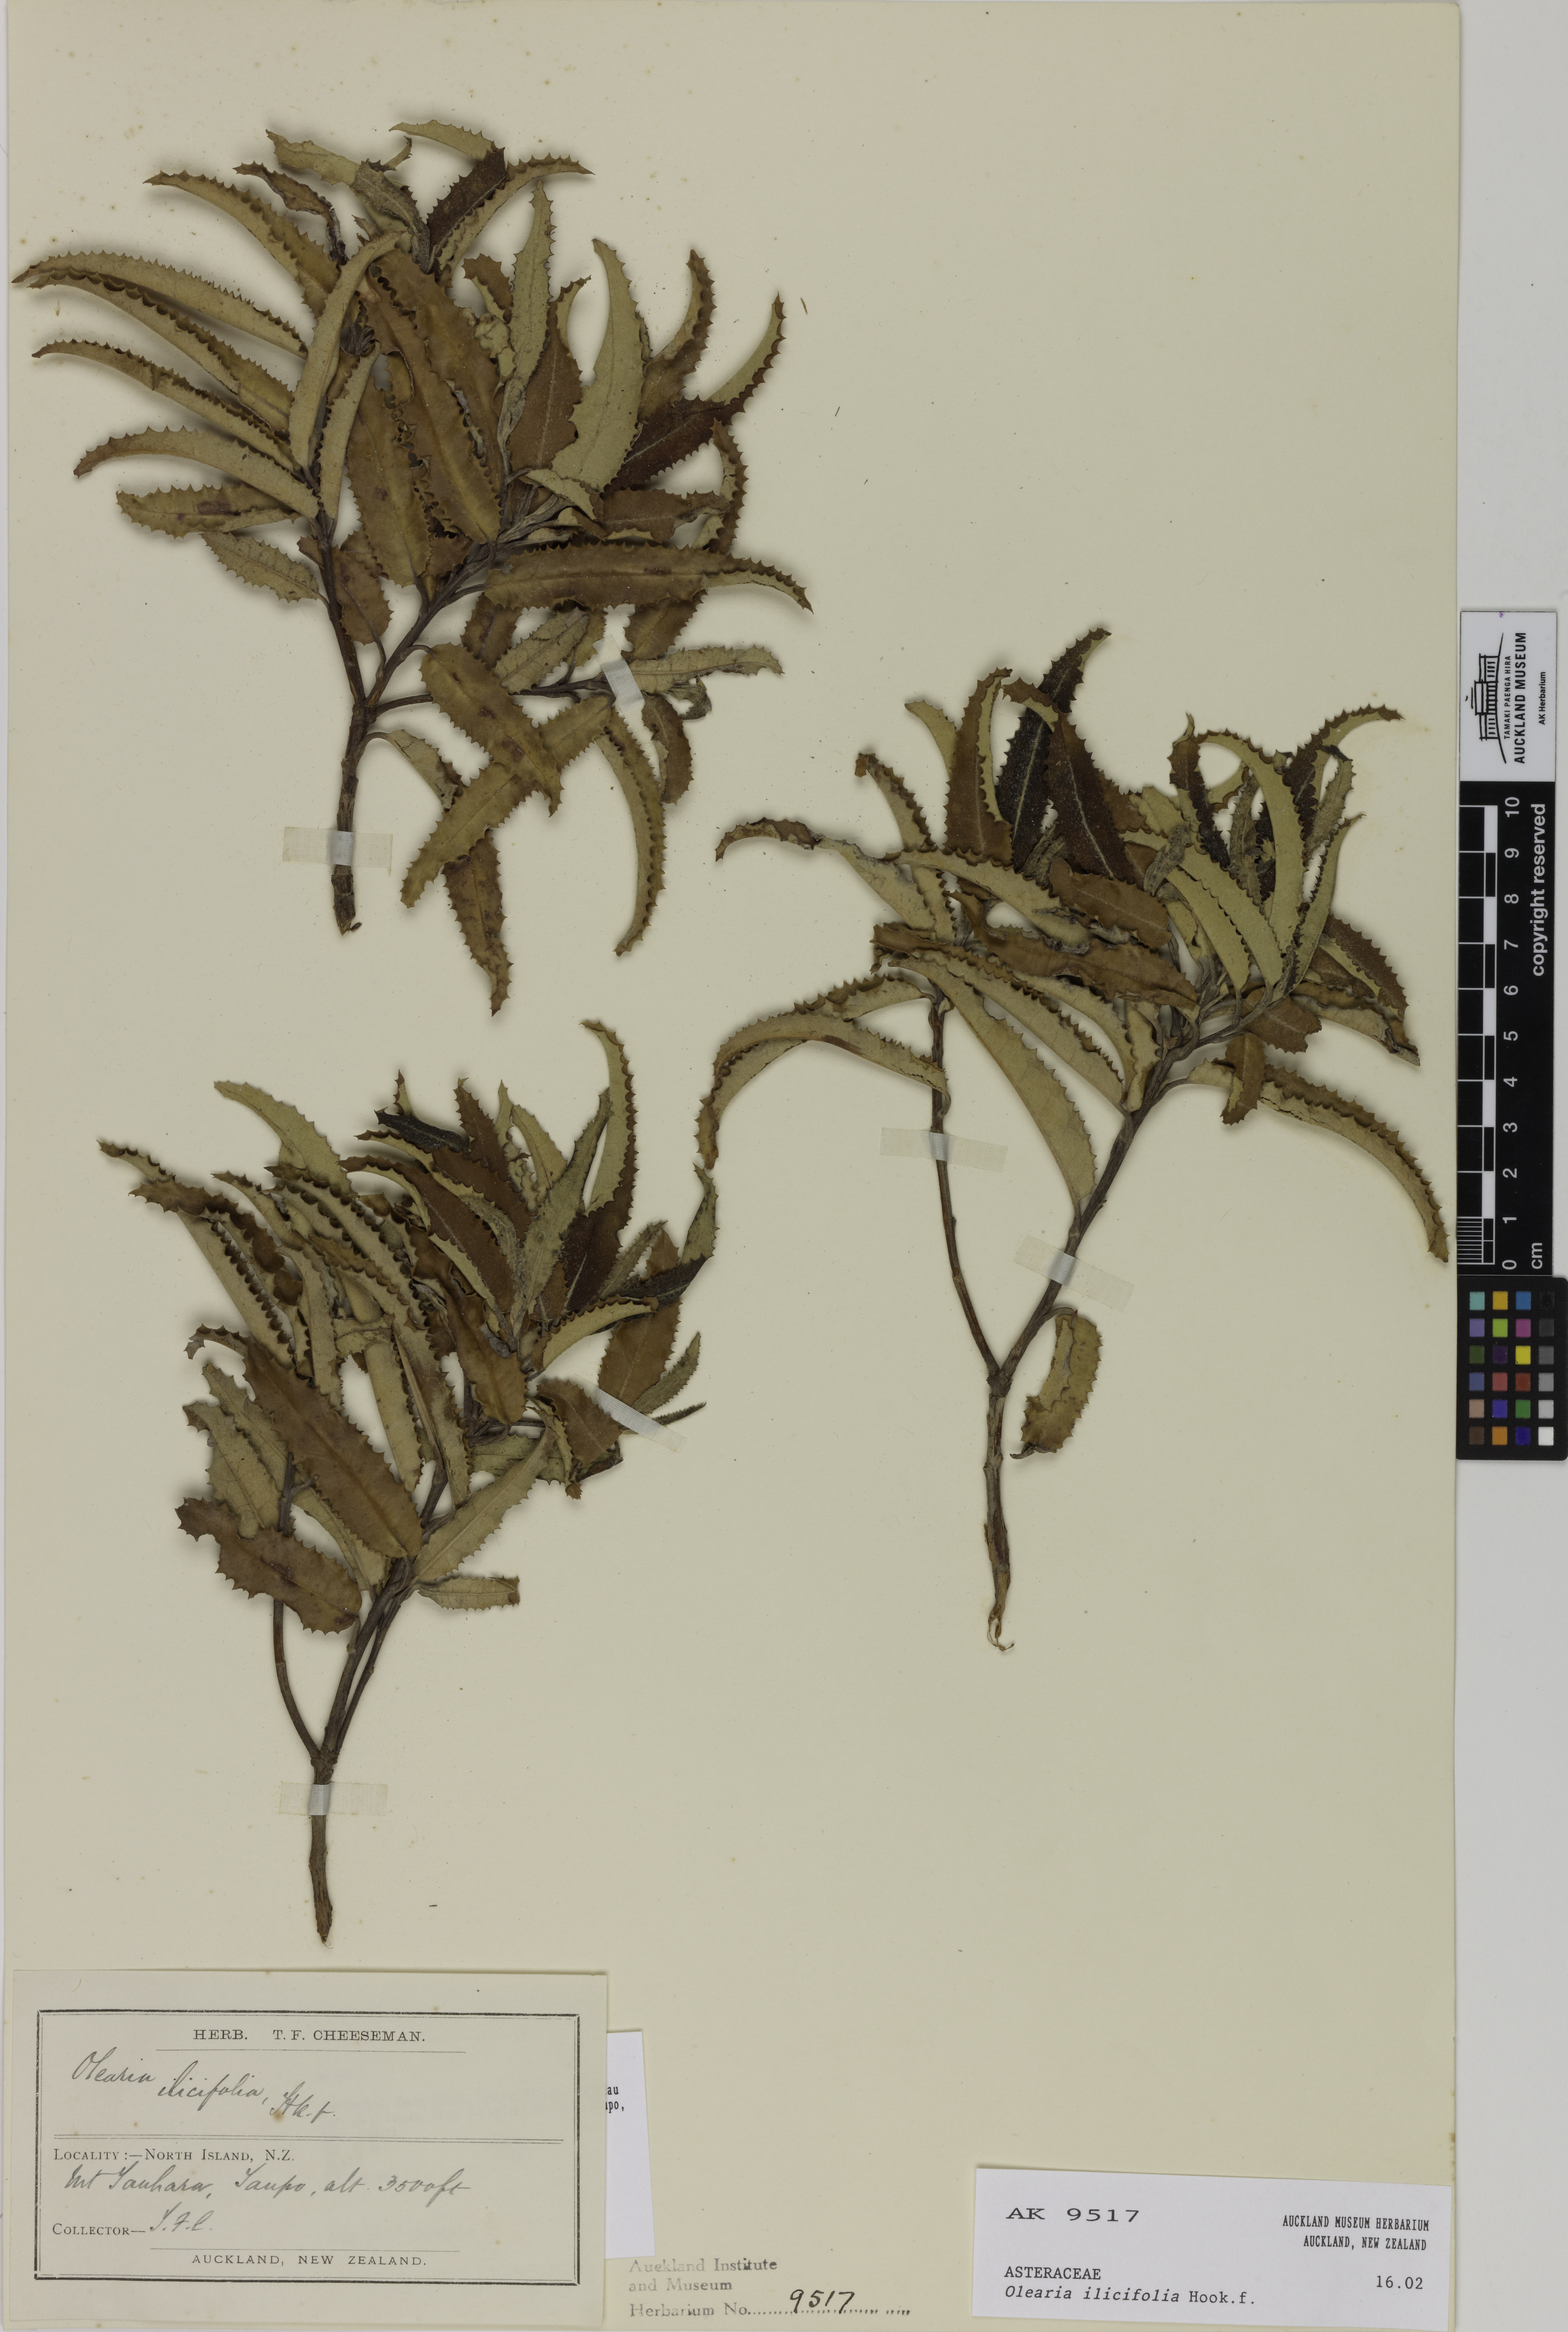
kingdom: Plantae
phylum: Tracheophyta
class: Magnoliopsida
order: Asterales
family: Asteraceae
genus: Olearia
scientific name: Olearia ilicifolia
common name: Maori-holly
